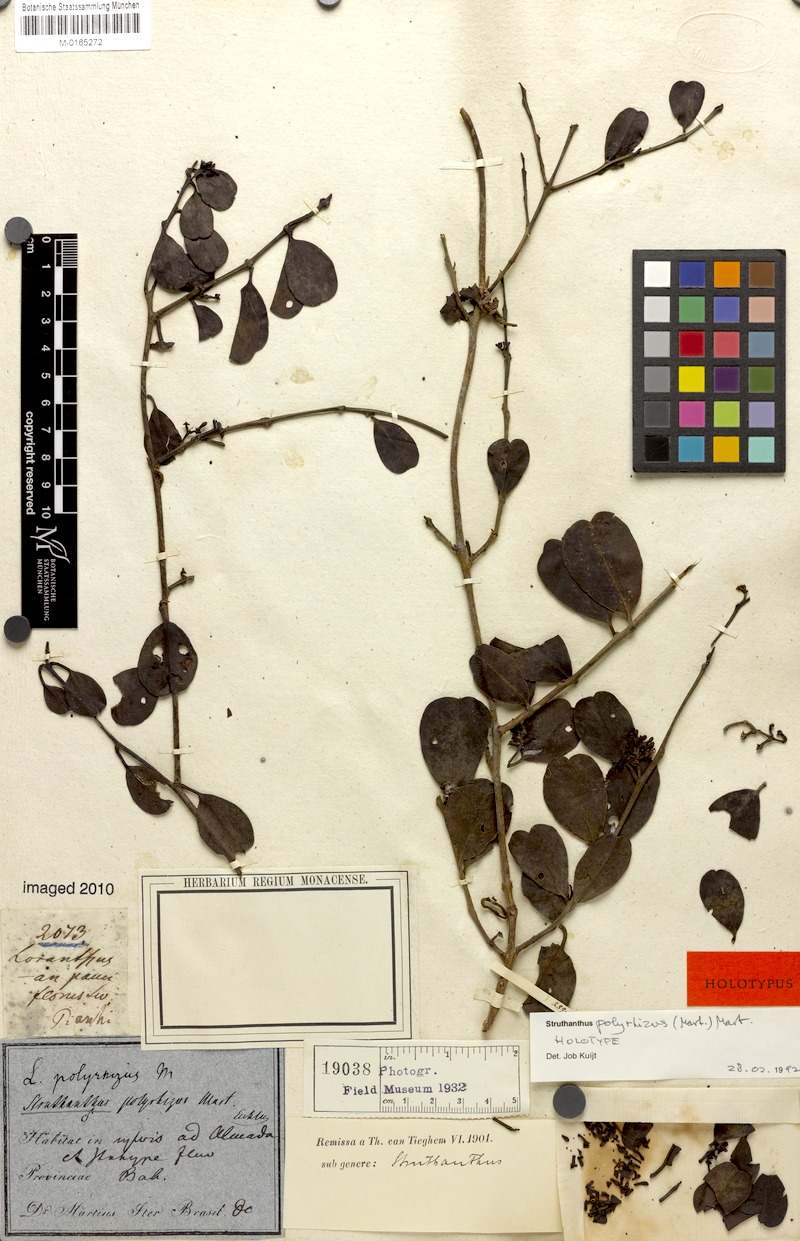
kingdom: Plantae
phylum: Tracheophyta
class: Magnoliopsida
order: Santalales
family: Loranthaceae
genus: Struthanthus
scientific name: Struthanthus retusus
